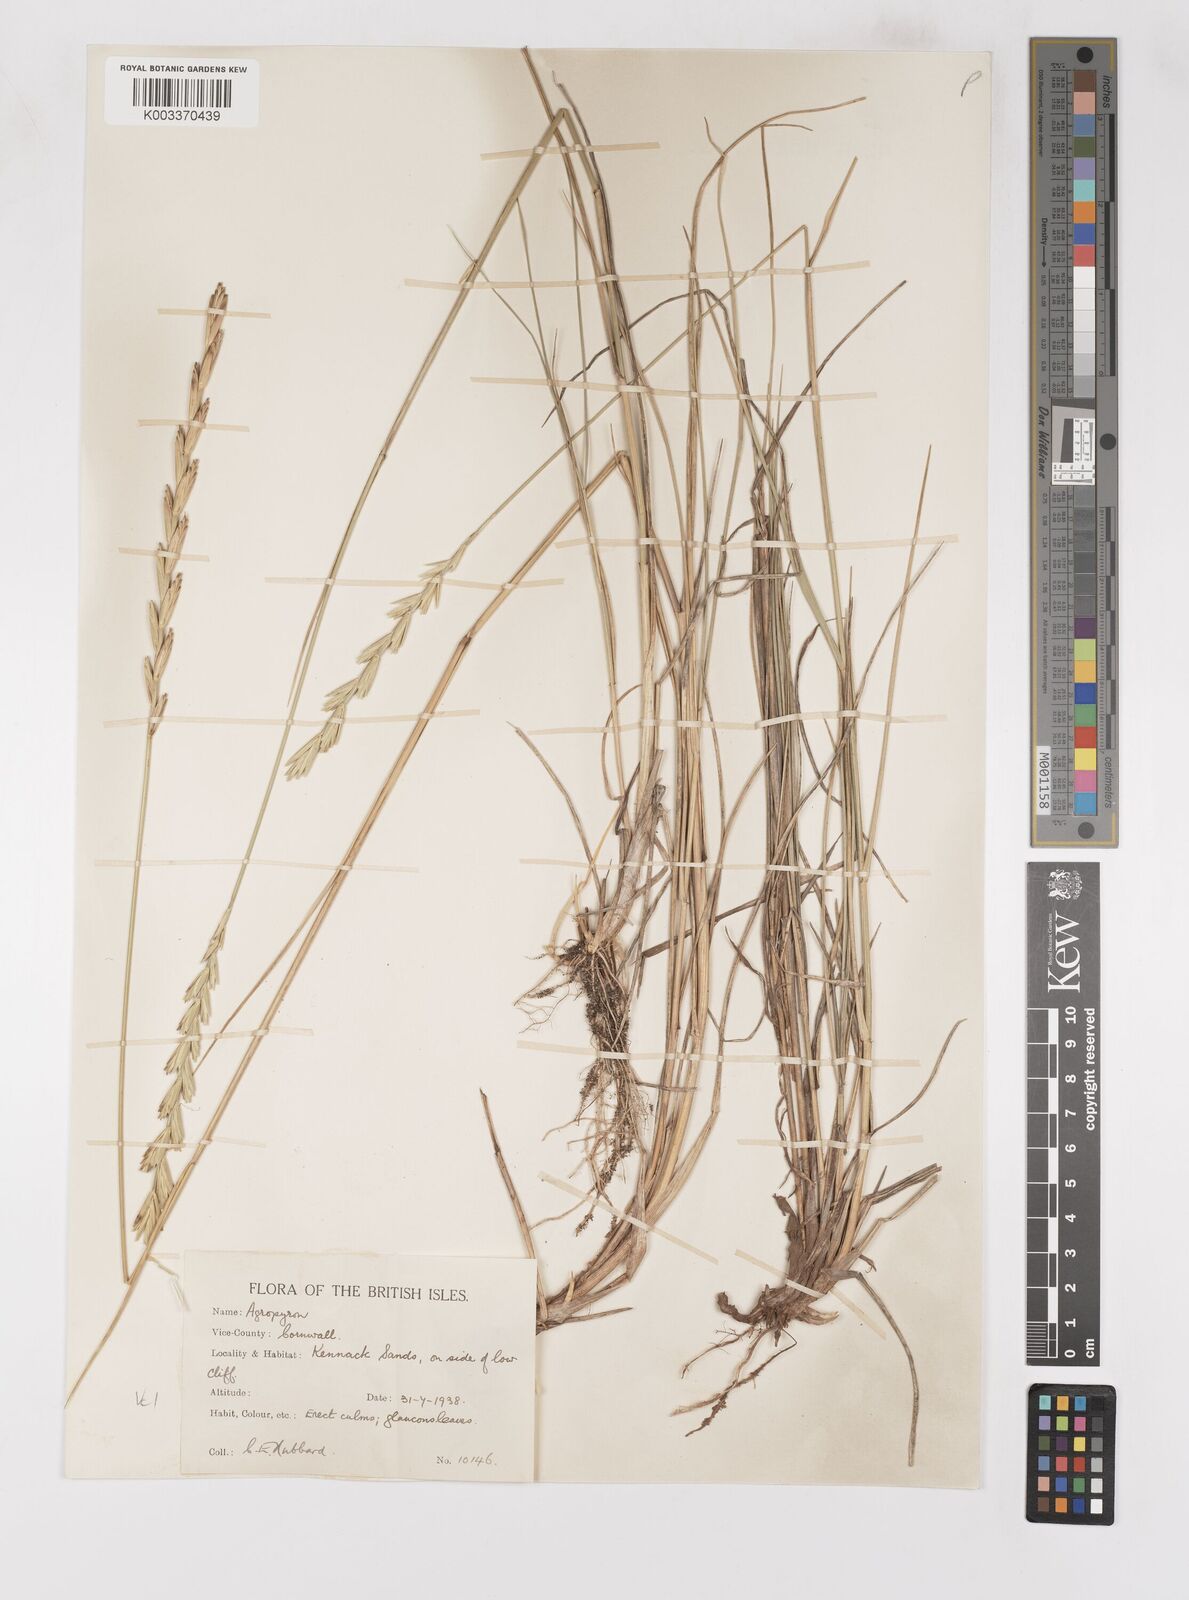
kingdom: Plantae
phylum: Tracheophyta
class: Liliopsida
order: Poales
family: Poaceae
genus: Thinoelymus
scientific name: Thinoelymus obtusiusculus
